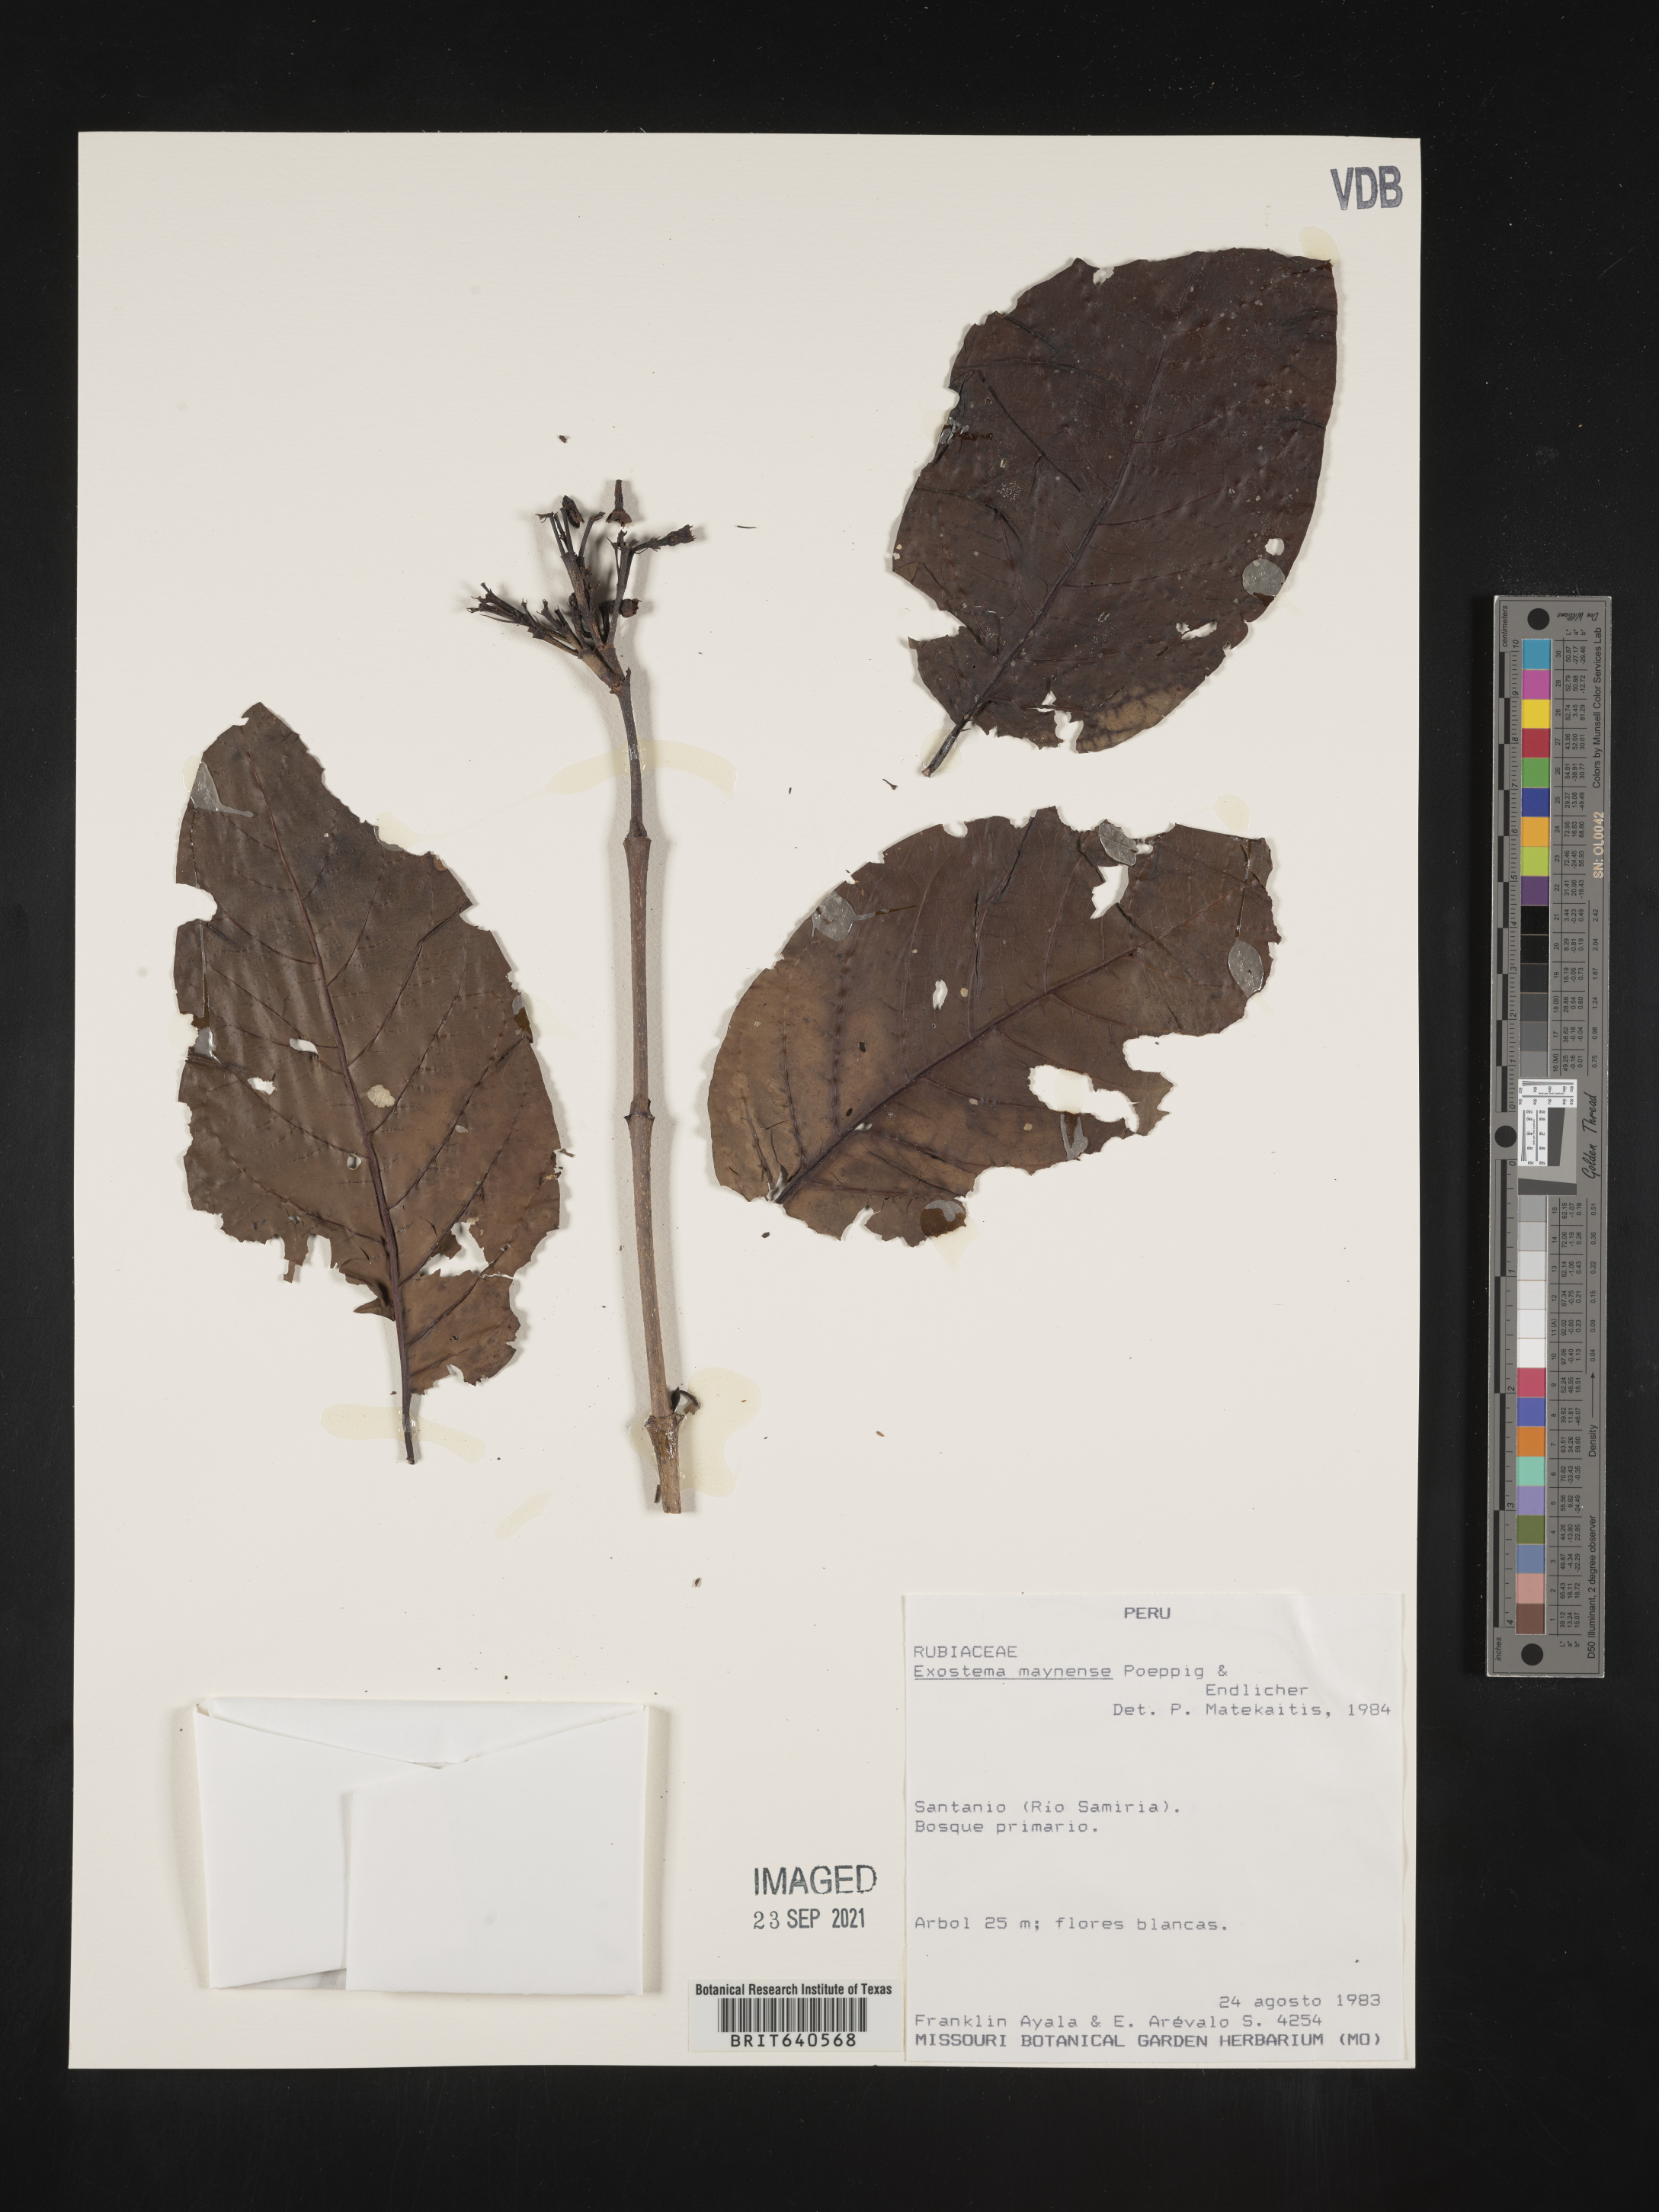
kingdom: Plantae
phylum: Tracheophyta
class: Magnoliopsida
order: Gentianales
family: Rubiaceae
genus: Exostema
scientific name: Exostema
